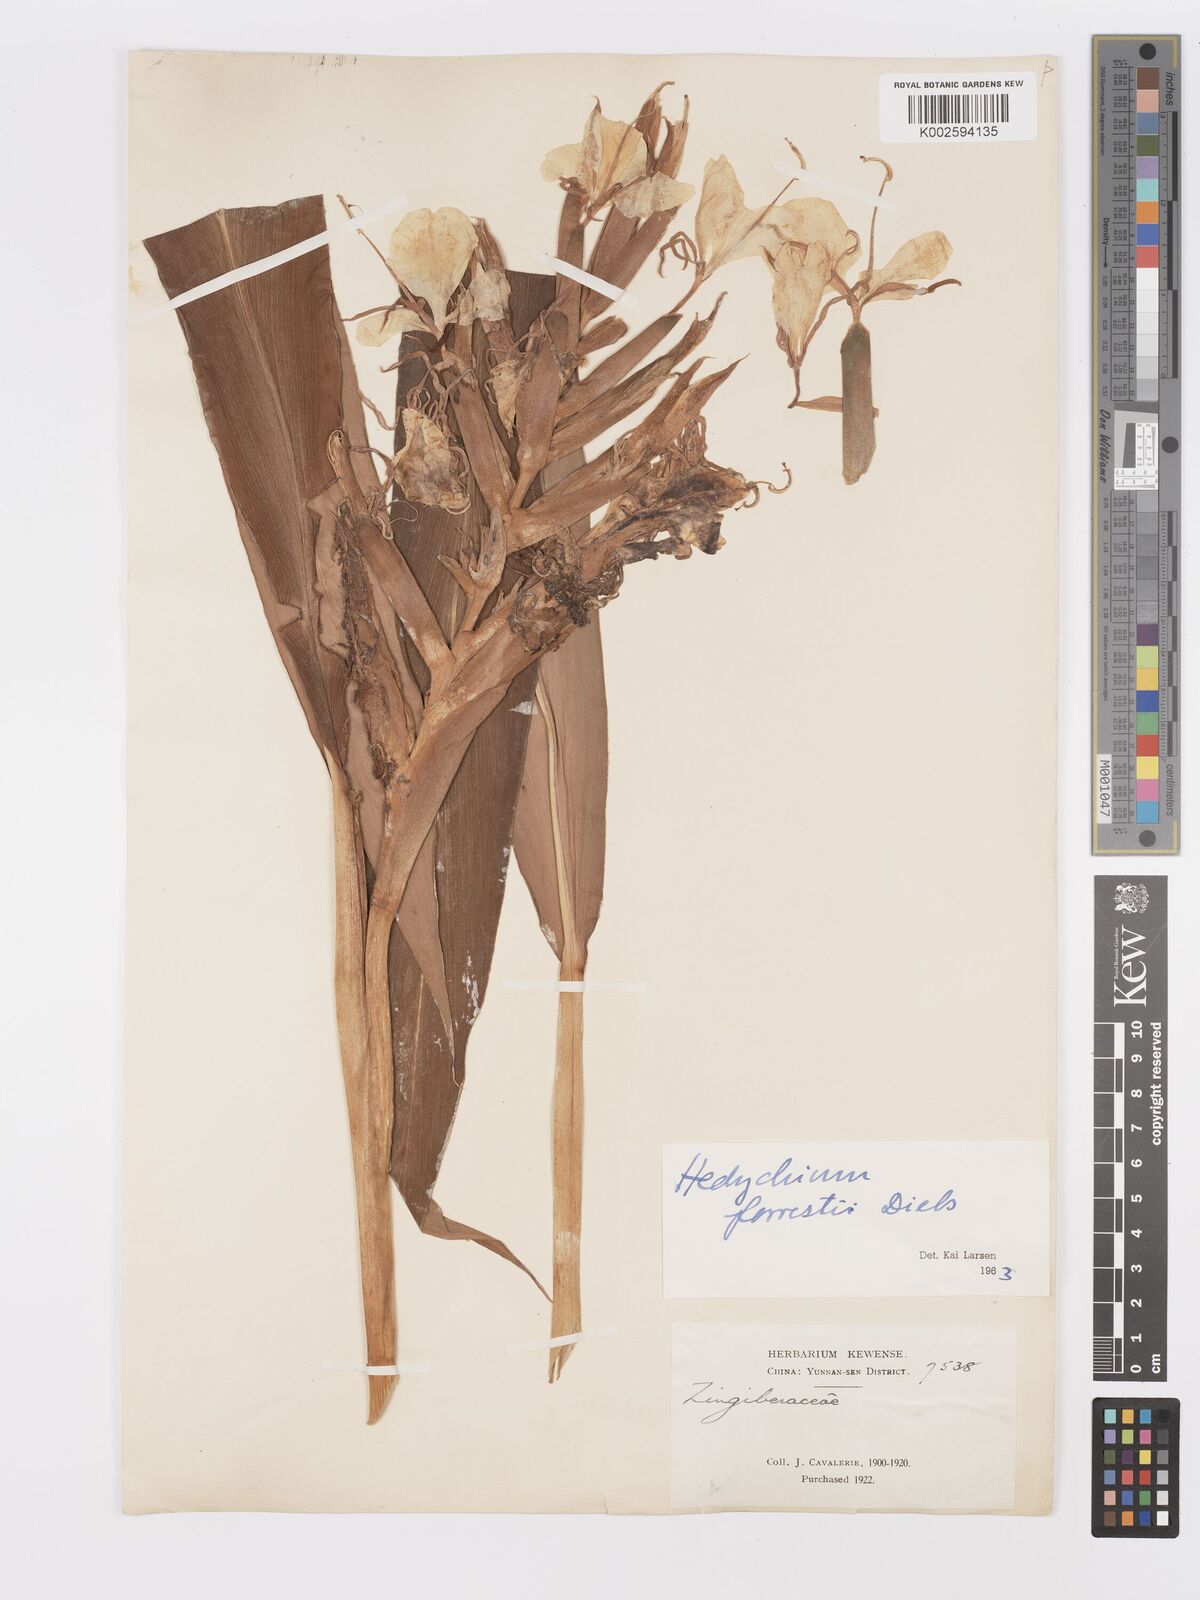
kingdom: Plantae
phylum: Tracheophyta
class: Liliopsida
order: Zingiberales
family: Zingiberaceae
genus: Hedychium
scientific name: Hedychium forrestii
